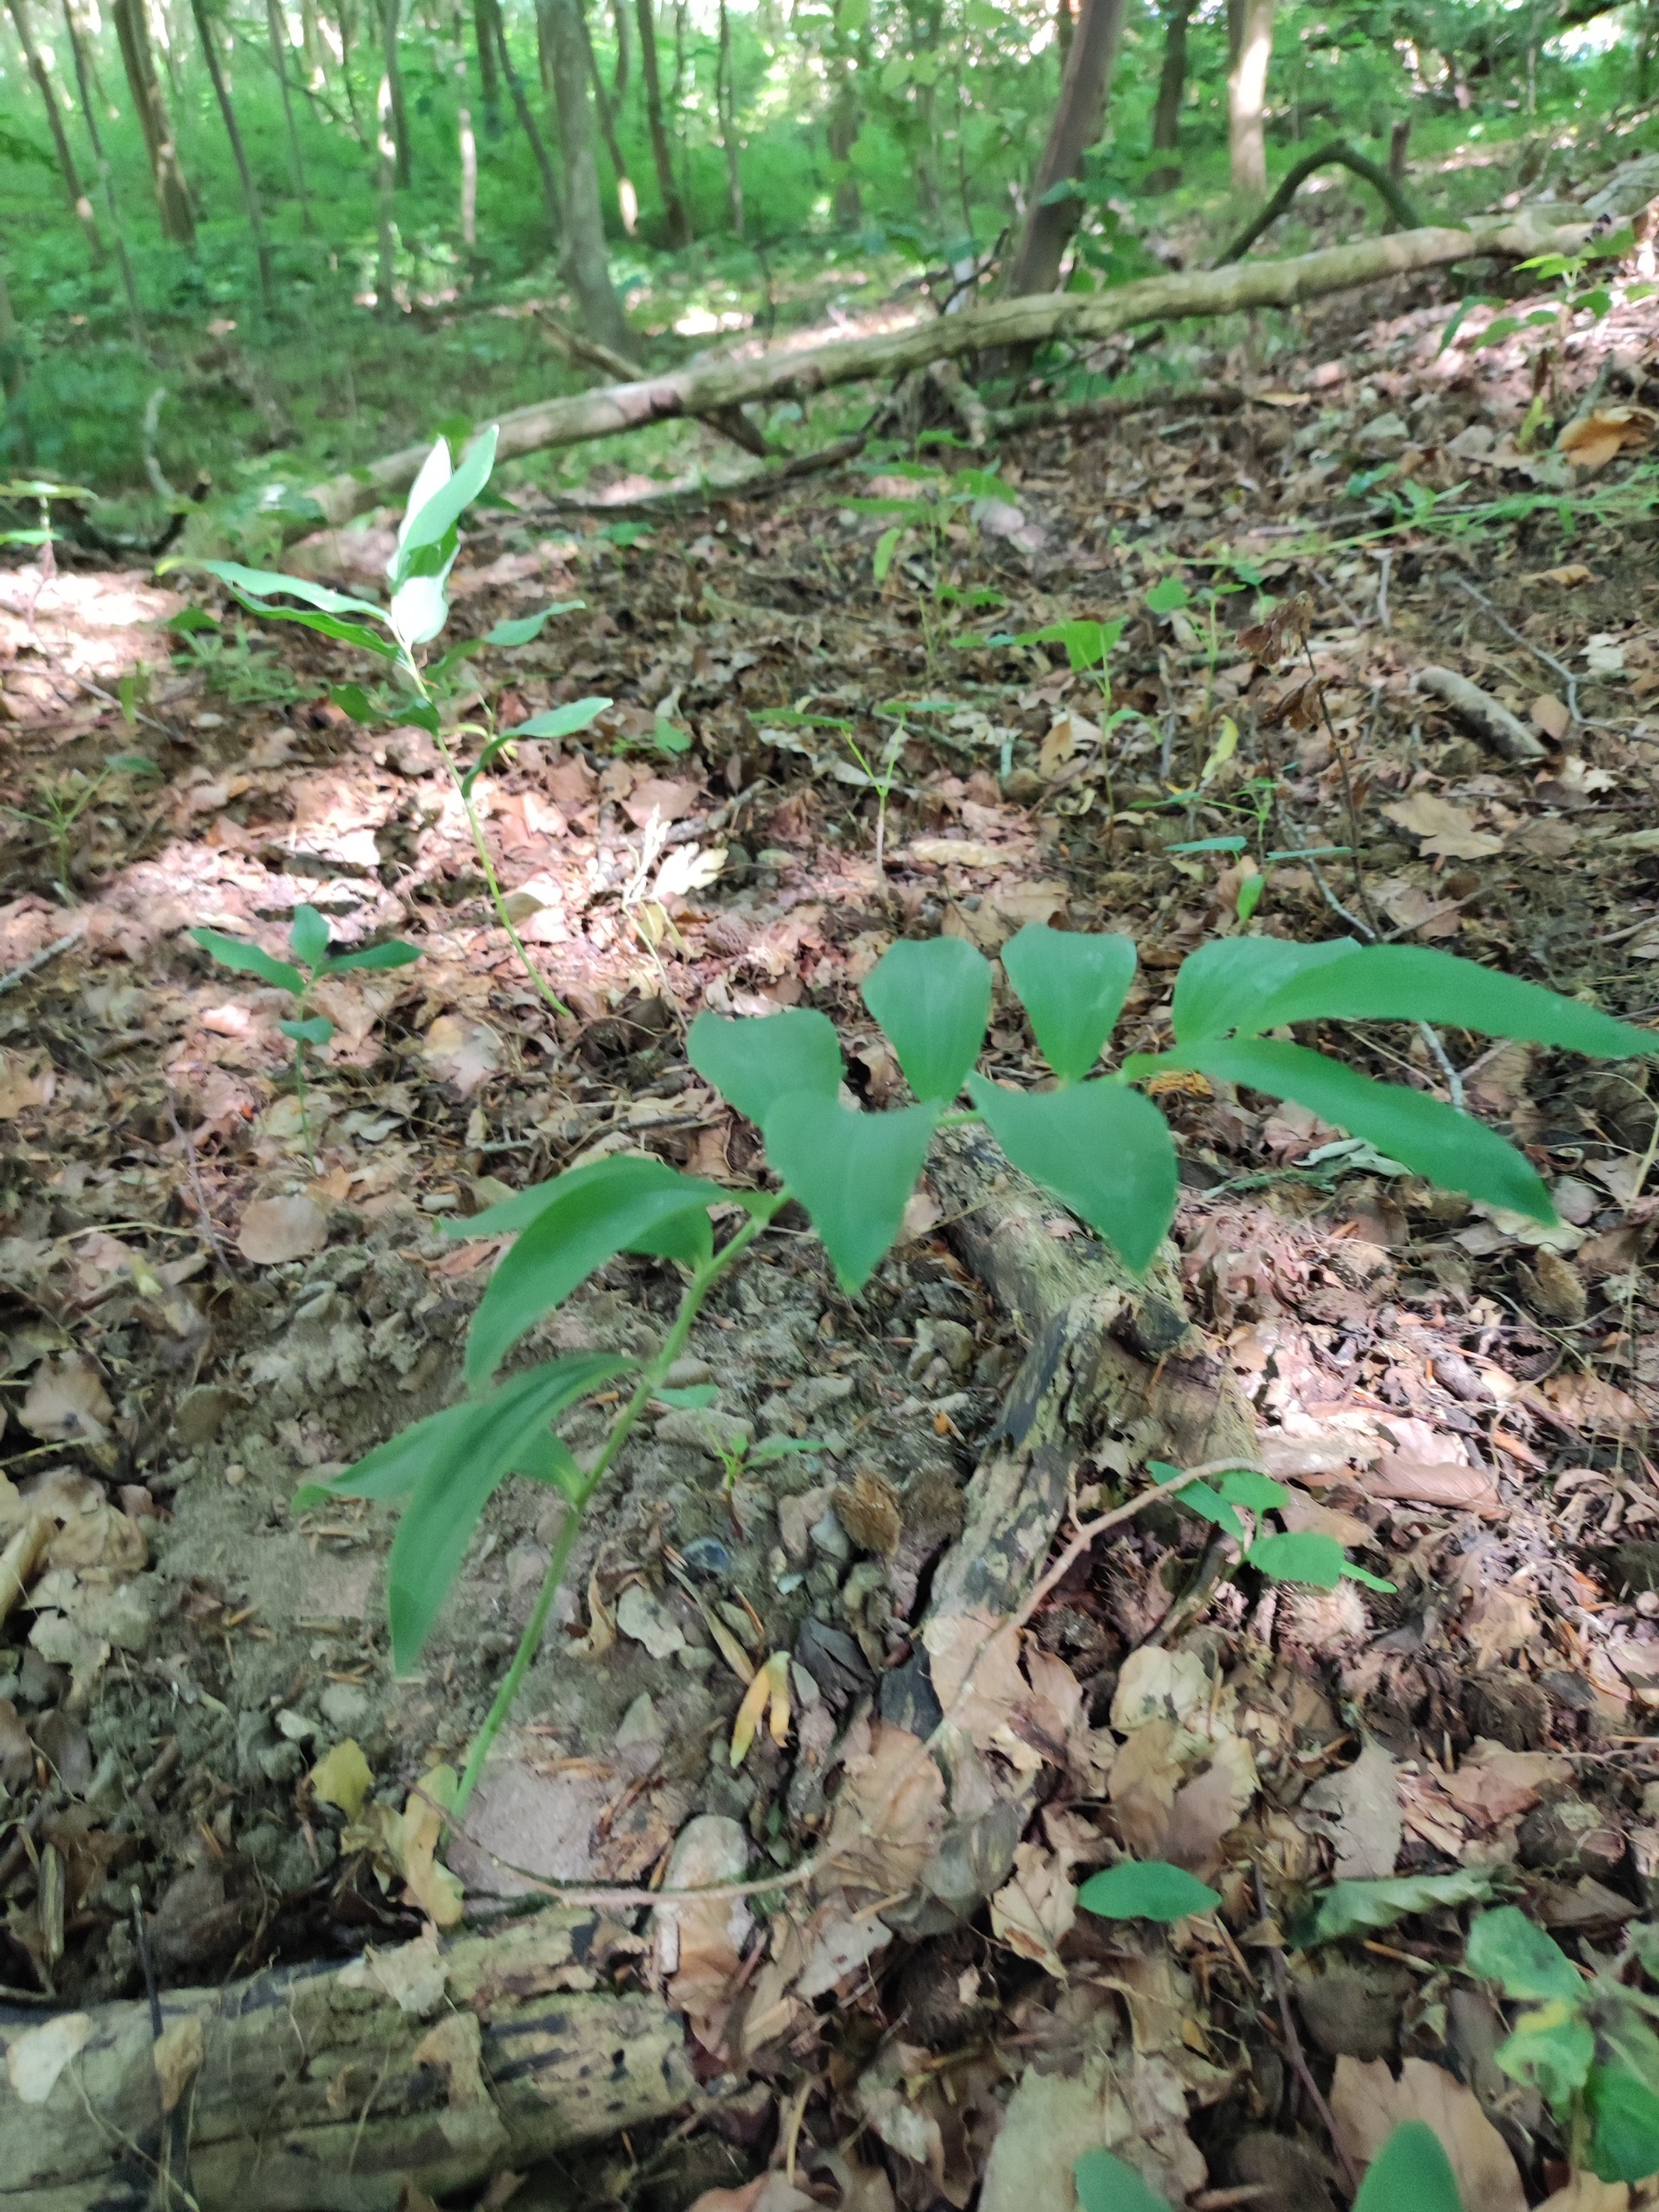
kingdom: Plantae
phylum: Tracheophyta
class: Liliopsida
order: Asparagales
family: Asparagaceae
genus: Polygonatum
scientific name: Polygonatum multiflorum
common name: Stor konval
